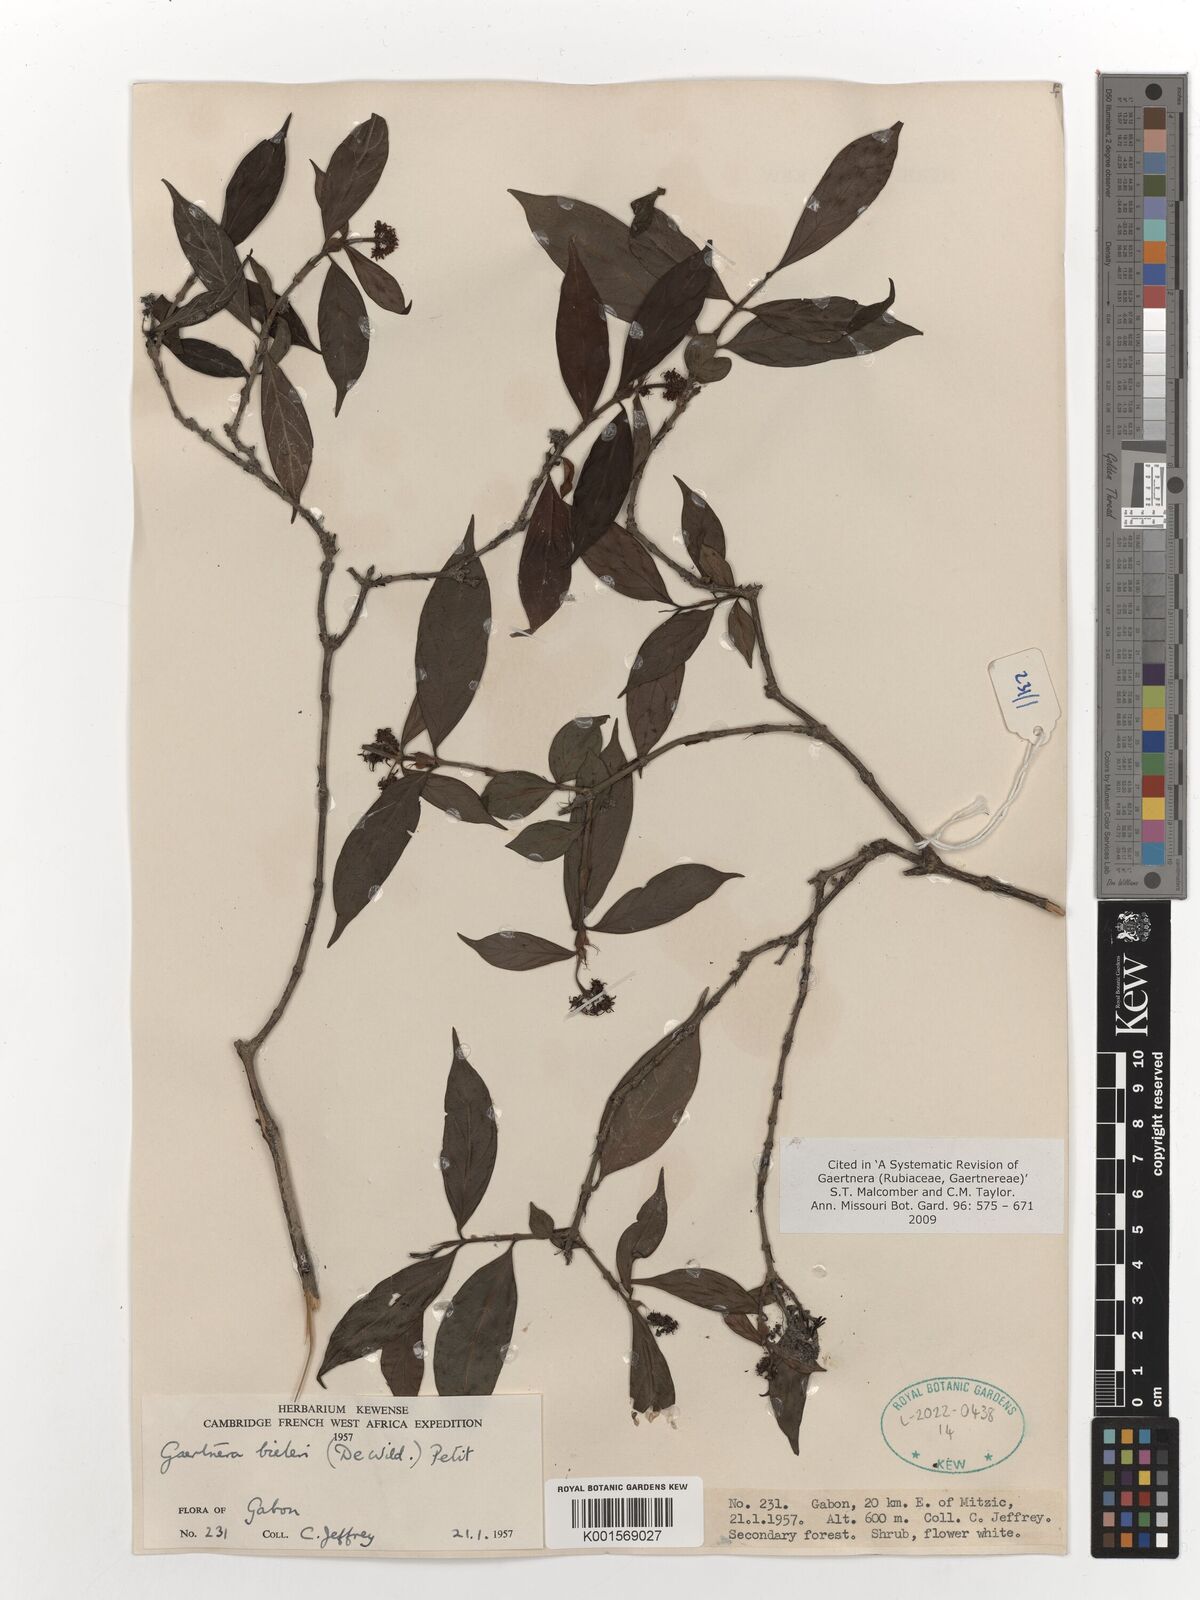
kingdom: Plantae
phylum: Tracheophyta
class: Magnoliopsida
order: Gentianales
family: Rubiaceae
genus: Gaertnera
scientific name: Gaertnera bieleri
